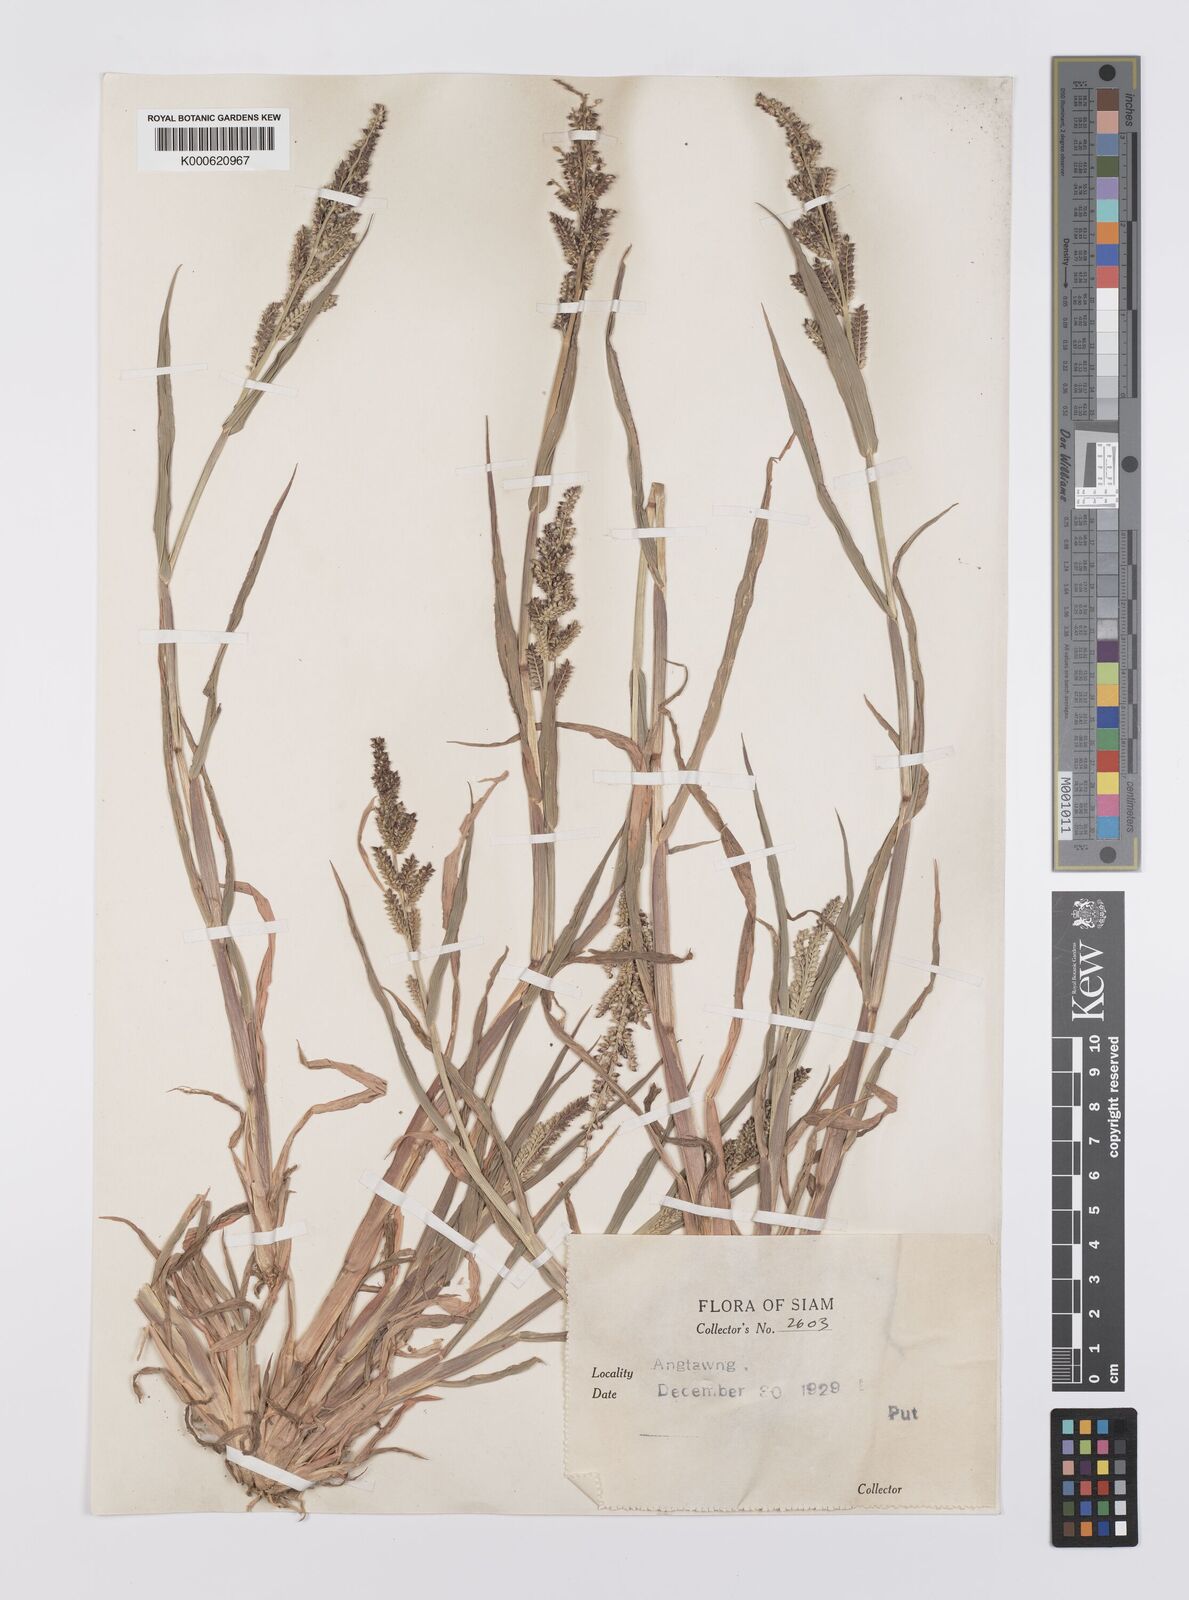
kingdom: Plantae
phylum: Tracheophyta
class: Liliopsida
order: Poales
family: Poaceae
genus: Echinochloa
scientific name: Echinochloa colonum
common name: Jungle rice
